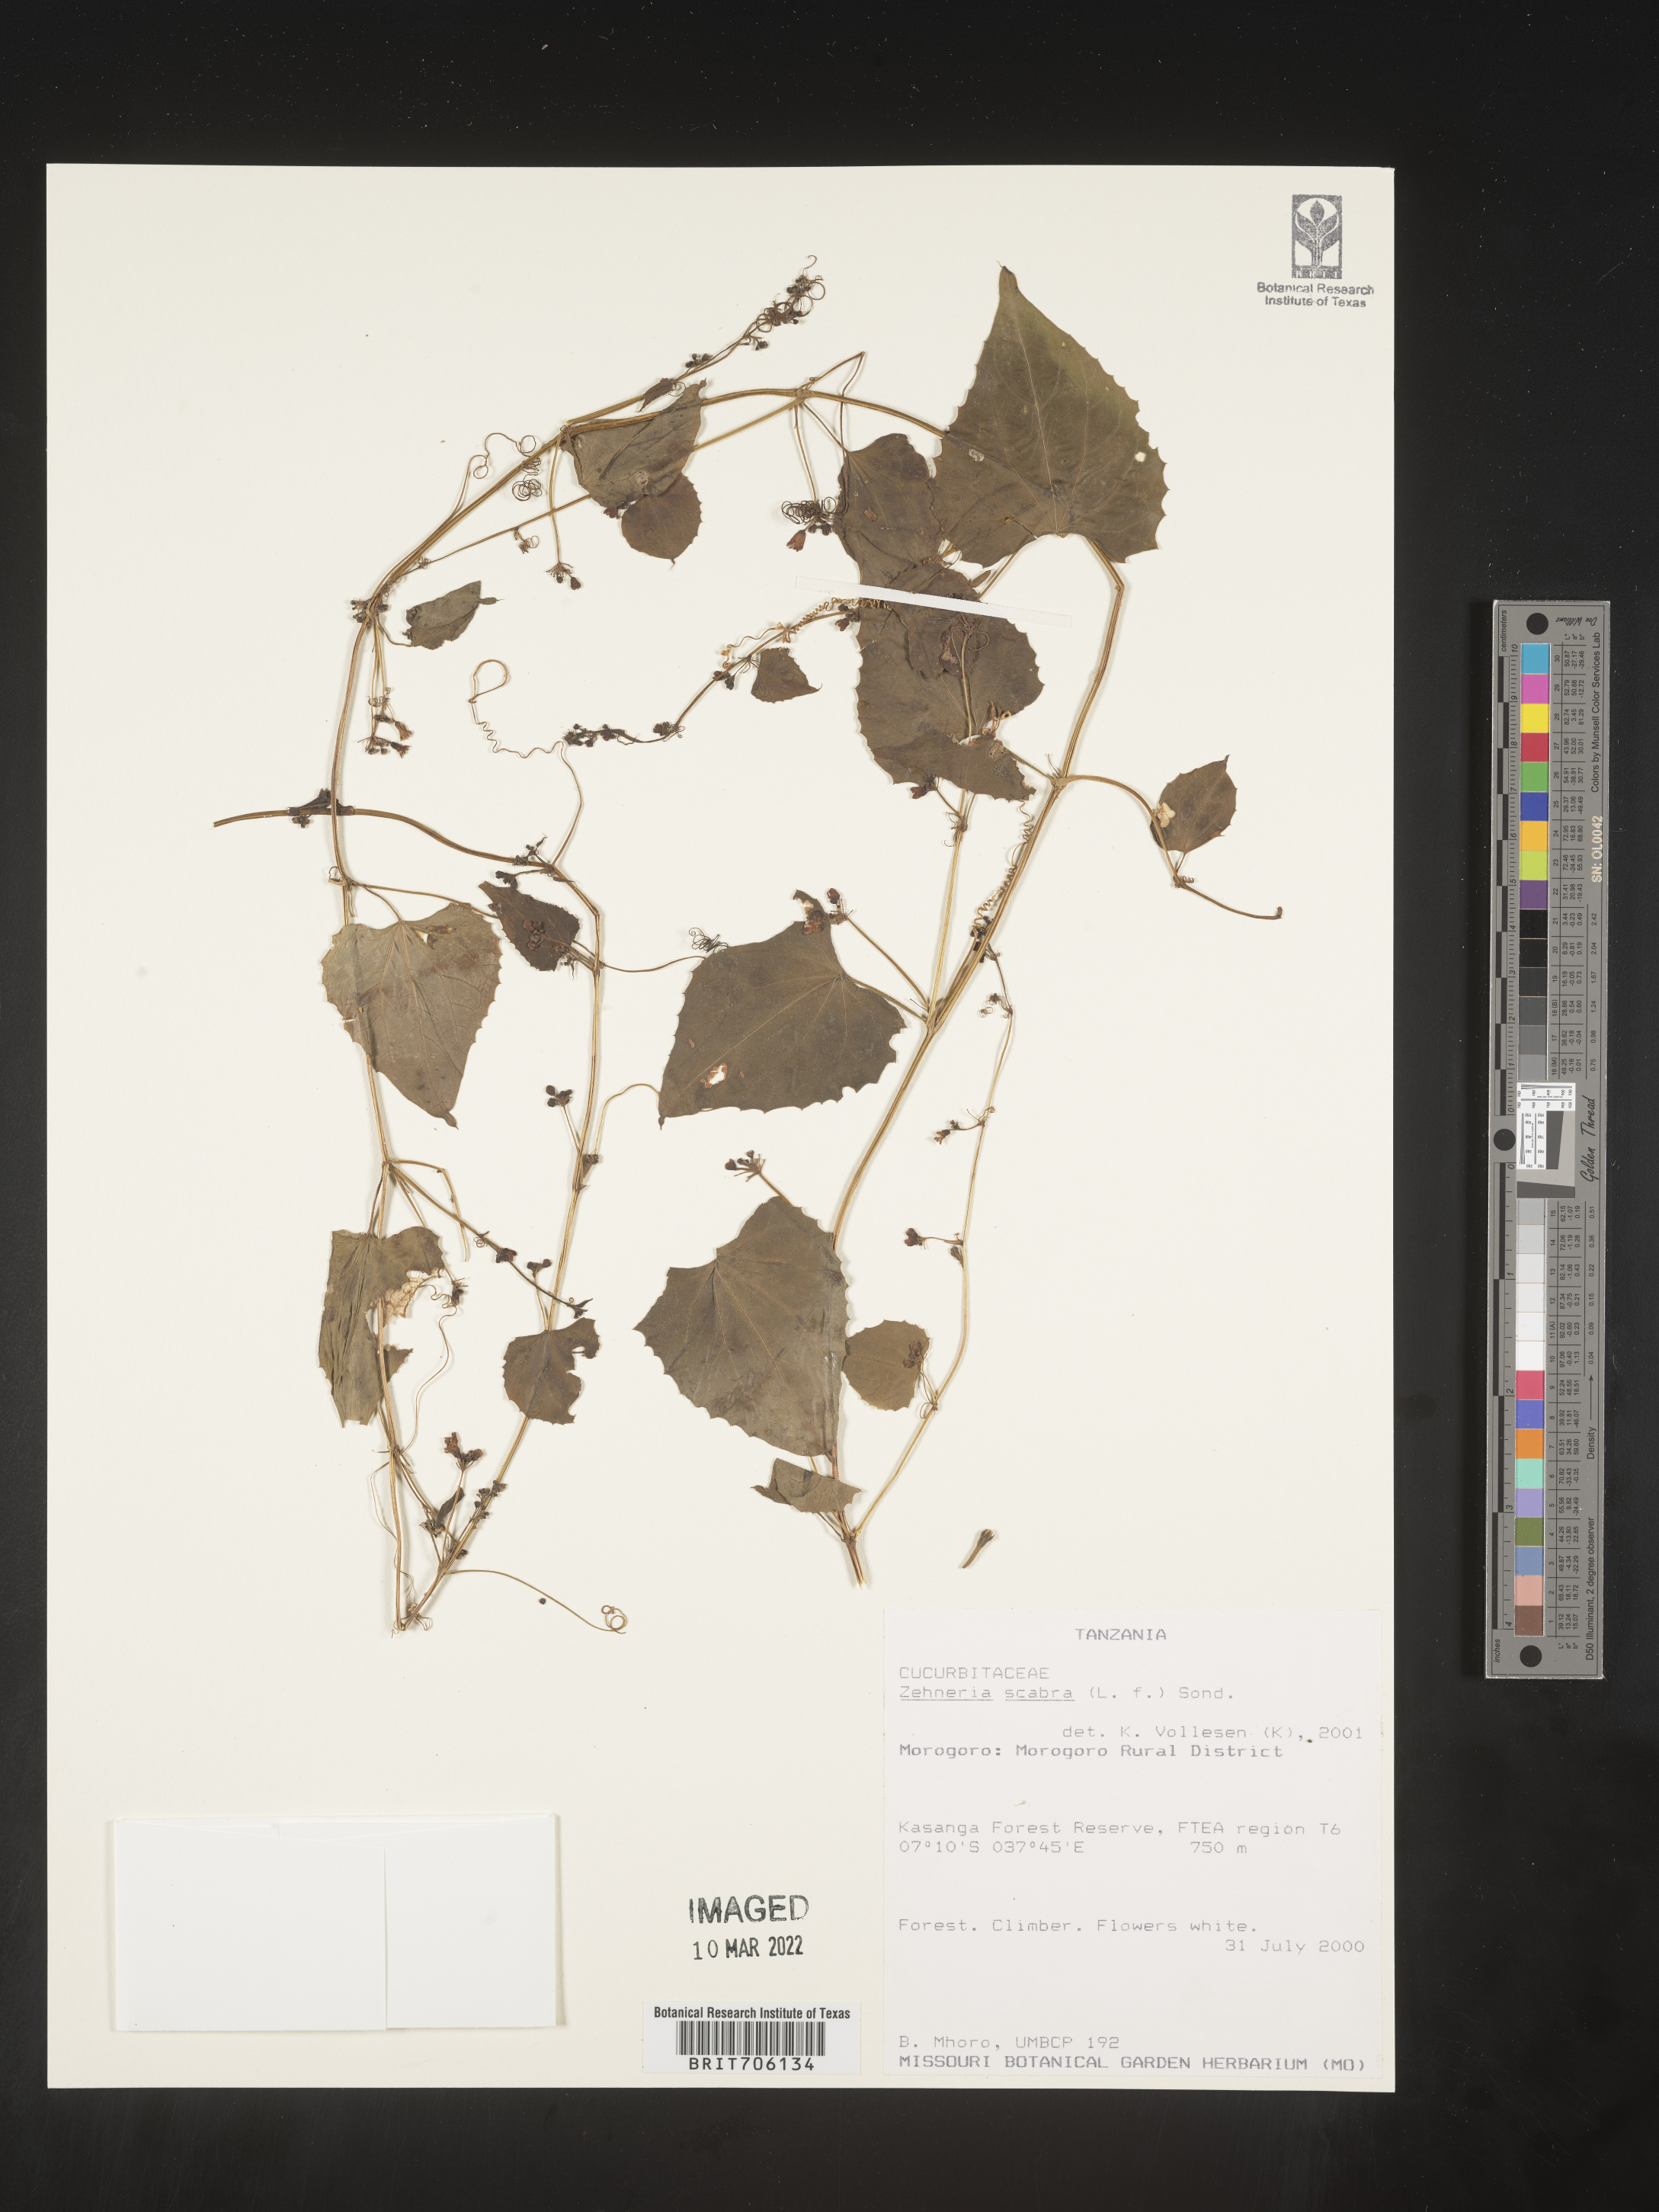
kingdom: Plantae
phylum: Tracheophyta
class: Magnoliopsida
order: Cucurbitales
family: Cucurbitaceae
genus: Zehneria
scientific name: Zehneria
